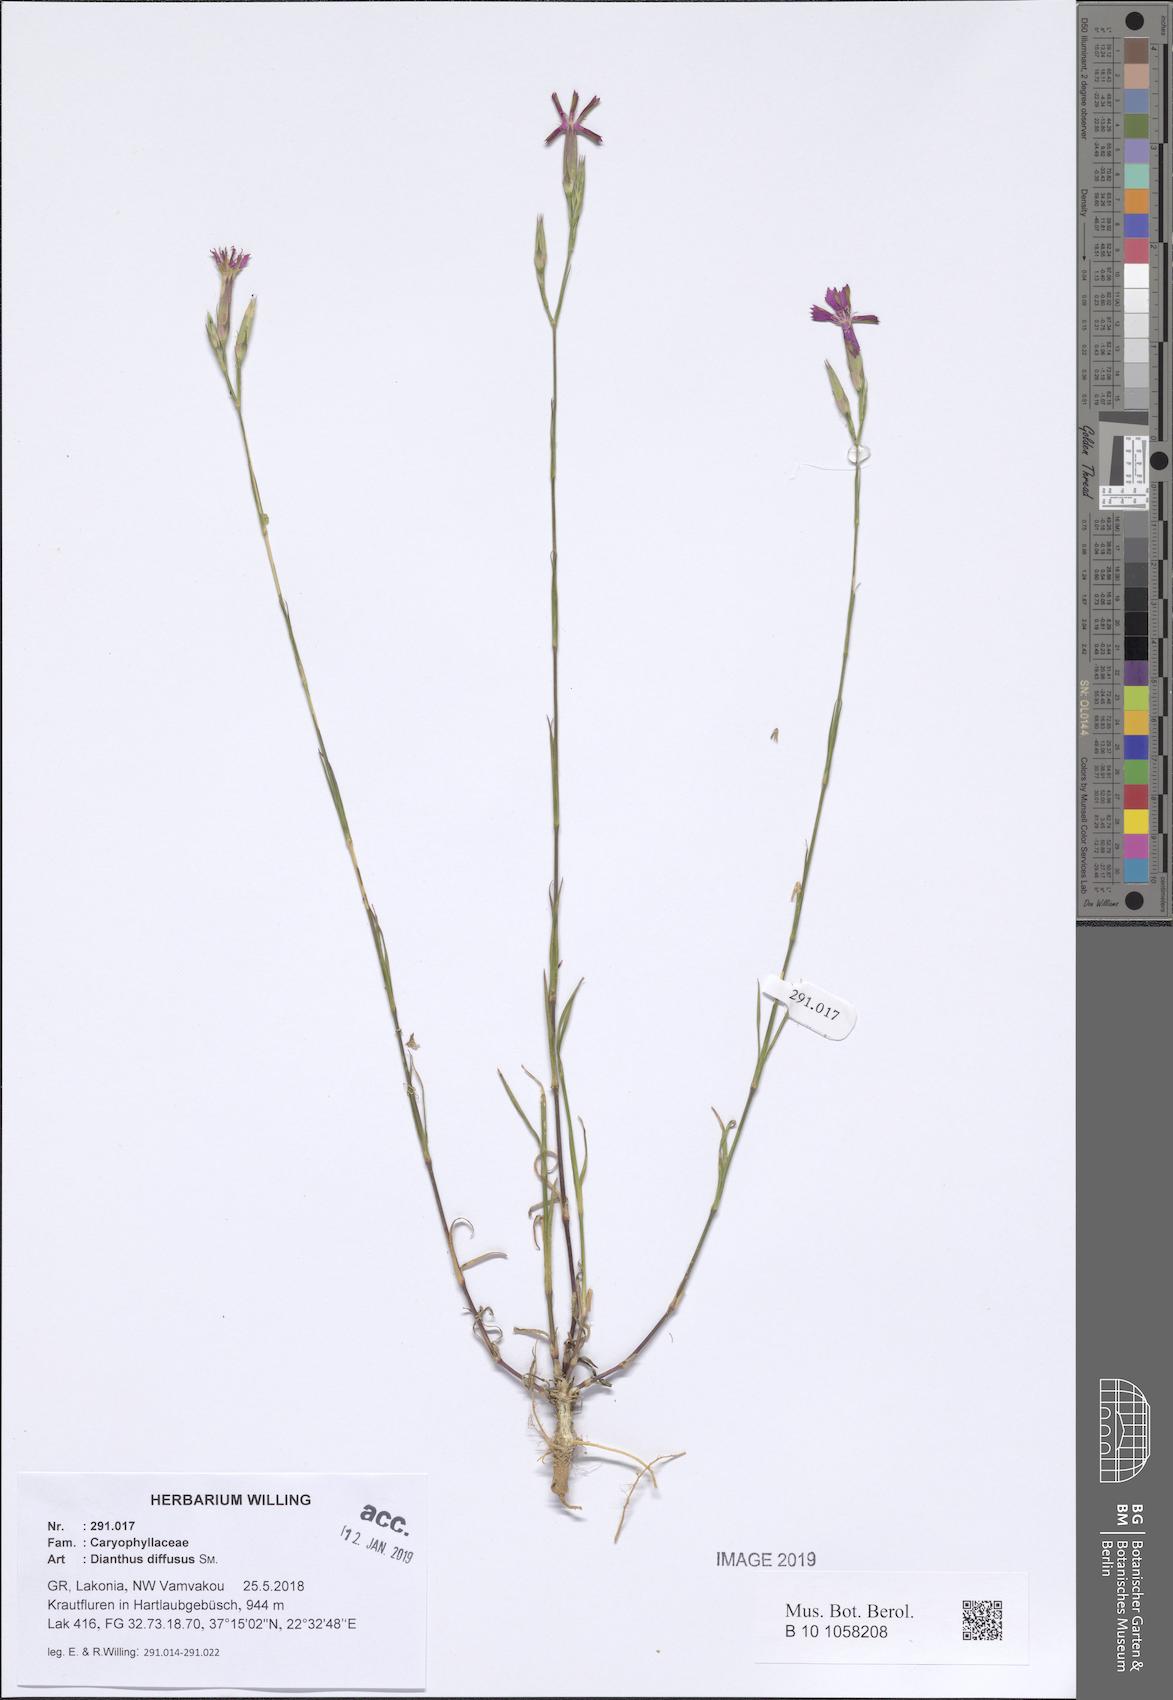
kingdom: Plantae
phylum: Tracheophyta
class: Magnoliopsida
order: Caryophyllales
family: Caryophyllaceae
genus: Dianthus
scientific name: Dianthus diffusus
